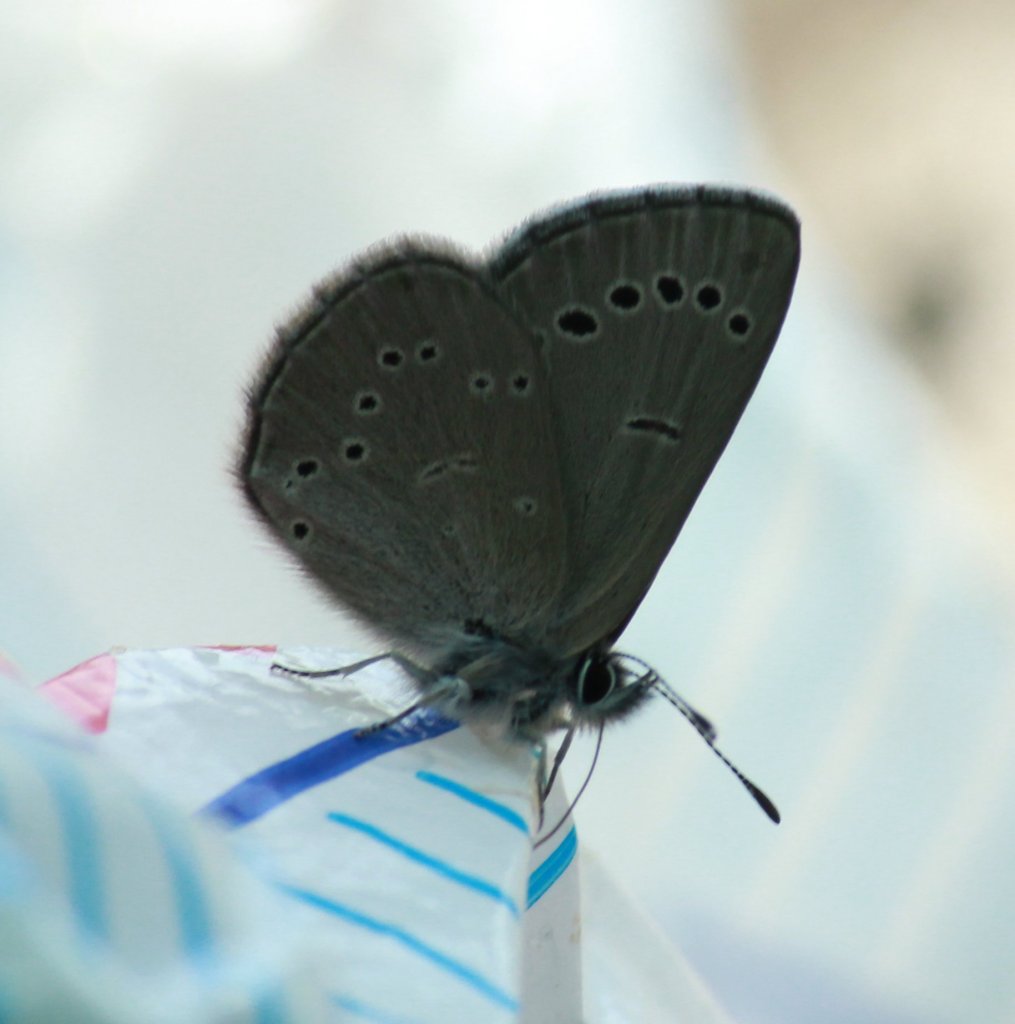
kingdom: Animalia
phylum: Arthropoda
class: Insecta
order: Lepidoptera
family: Lycaenidae
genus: Glaucopsyche
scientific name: Glaucopsyche lygdamus
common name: Silvery Blue
